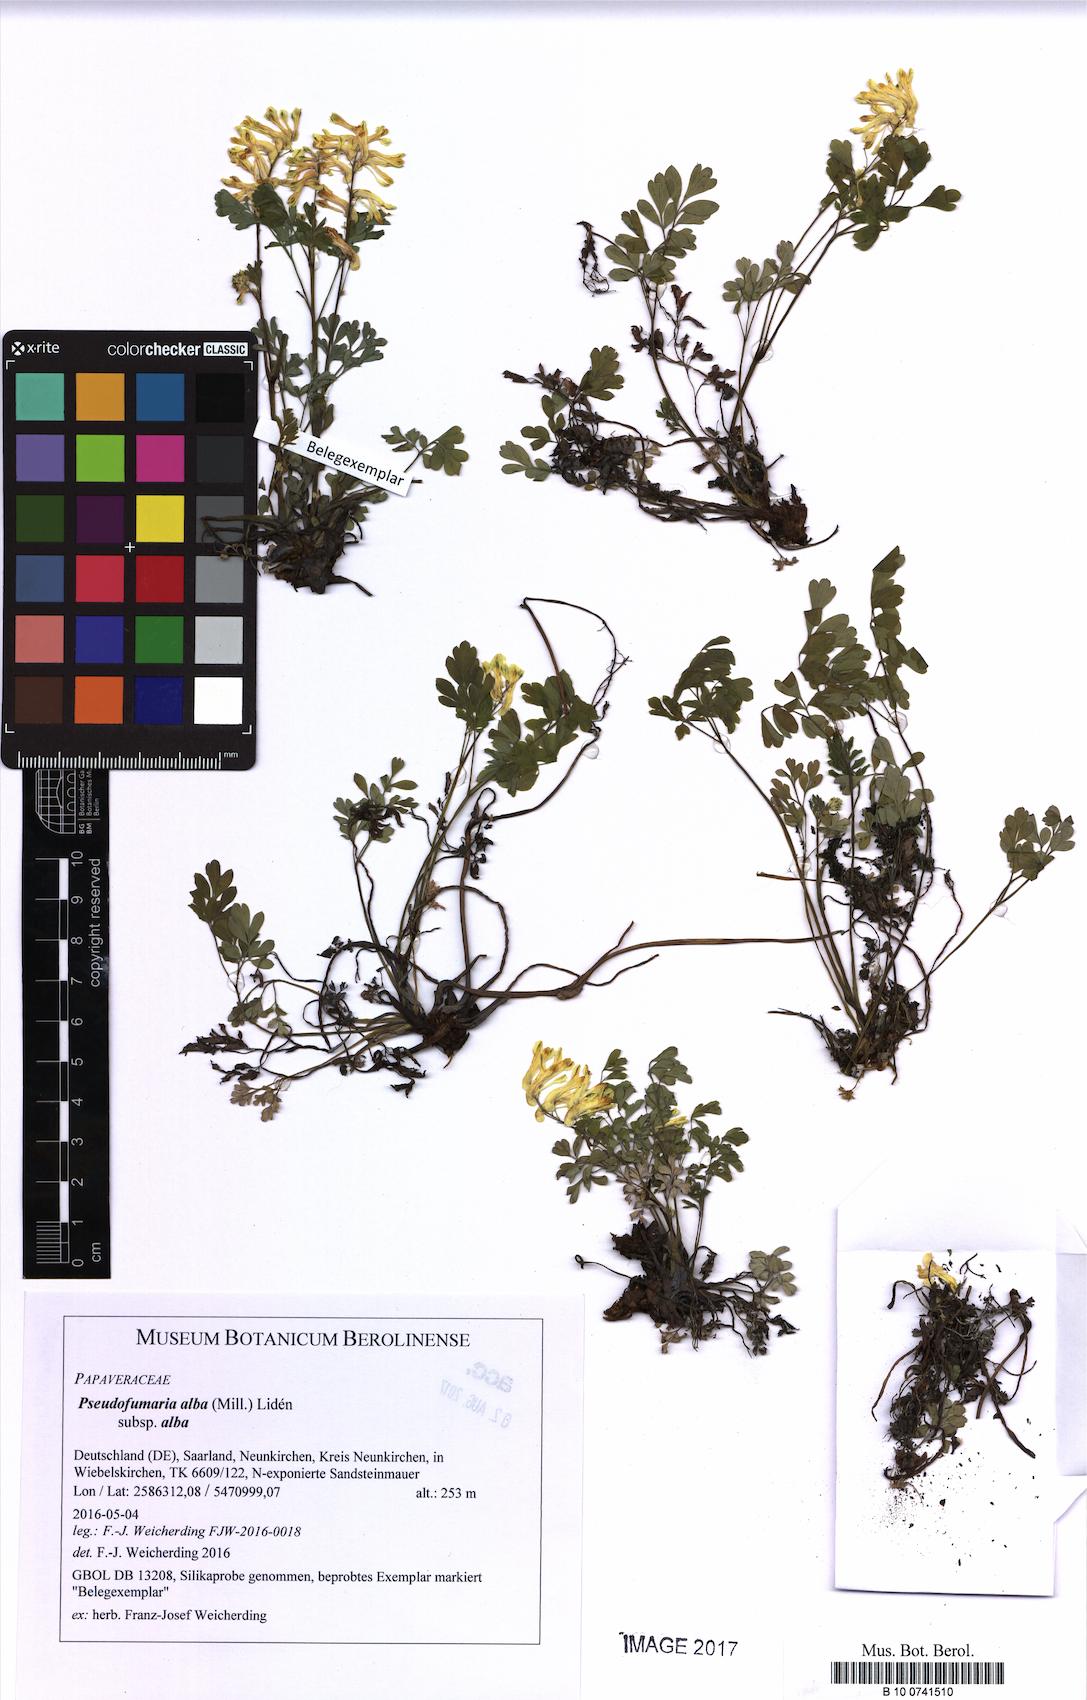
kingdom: Plantae
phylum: Tracheophyta
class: Magnoliopsida
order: Ranunculales
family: Papaveraceae
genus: Pseudofumaria
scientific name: Pseudofumaria alba
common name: Pale corydalis
